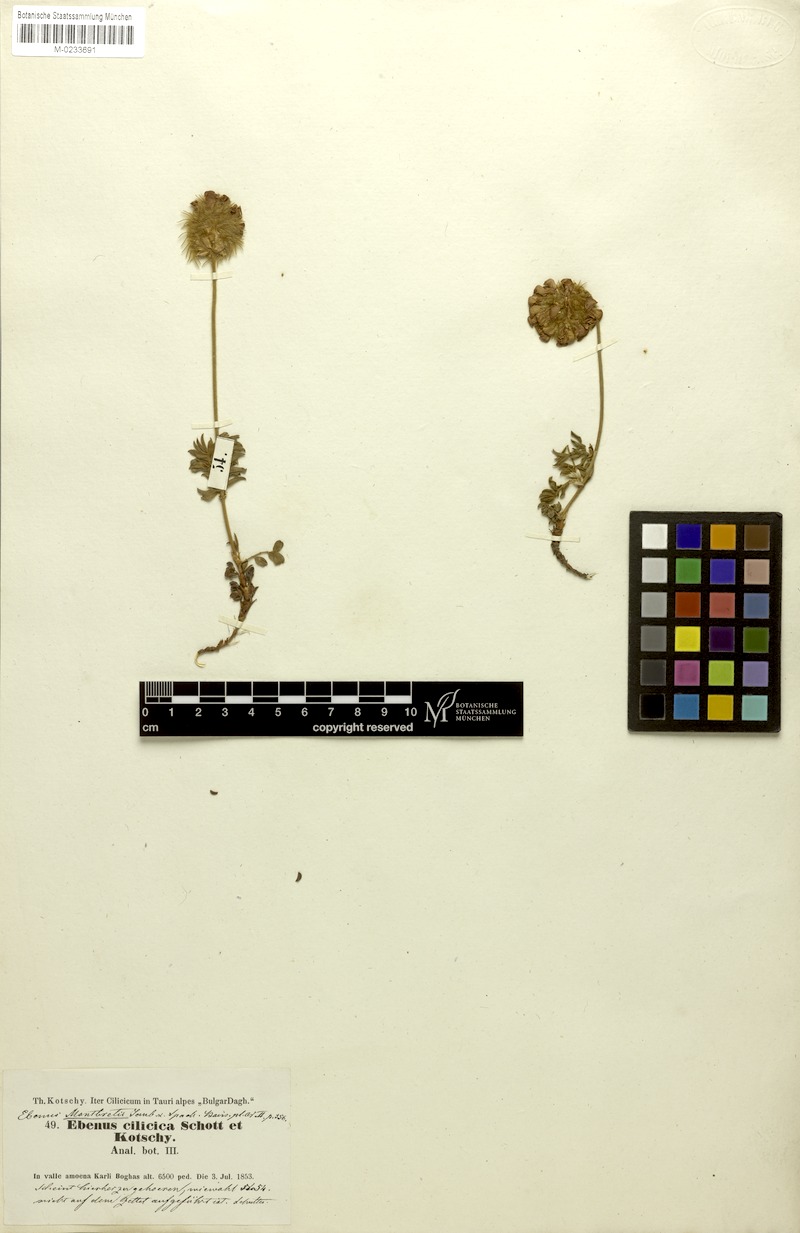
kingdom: Plantae
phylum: Tracheophyta
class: Magnoliopsida
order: Fabales
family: Fabaceae
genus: Ebenus
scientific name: Ebenus laguroides
